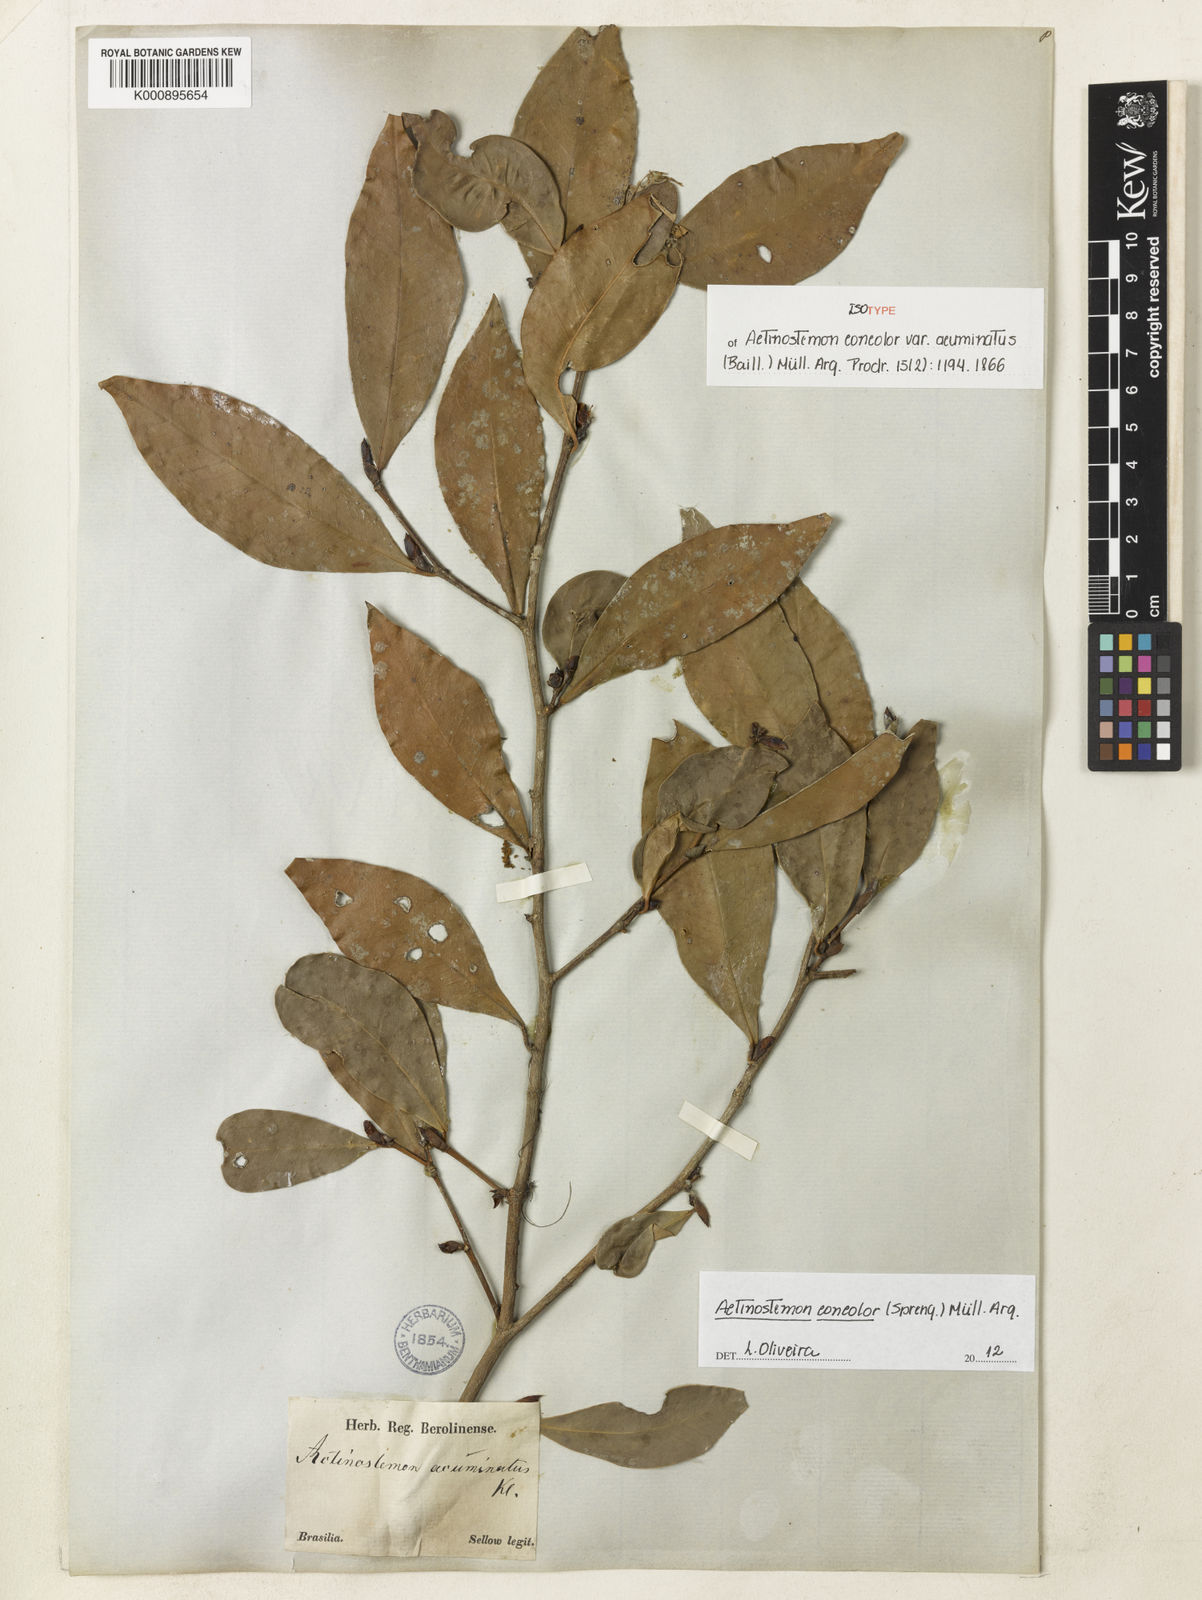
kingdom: Plantae
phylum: Tracheophyta
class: Magnoliopsida
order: Malpighiales
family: Euphorbiaceae
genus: Actinostemon
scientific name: Actinostemon
